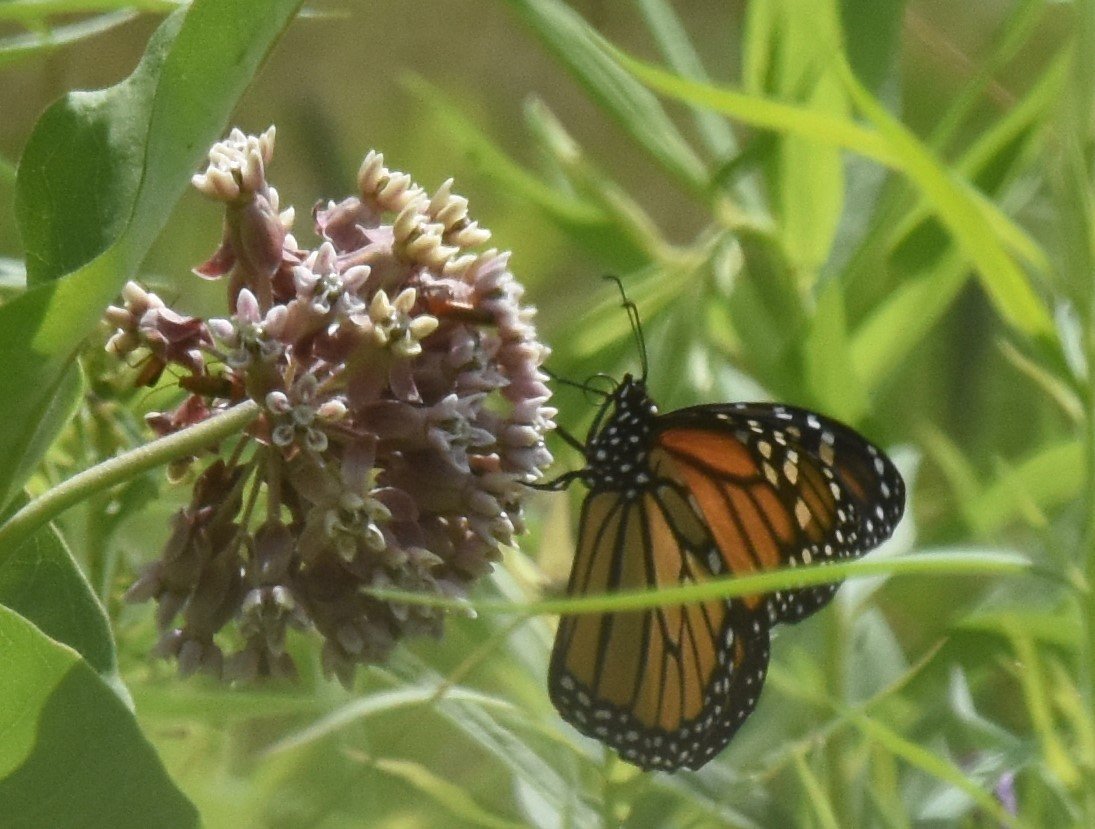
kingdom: Animalia
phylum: Arthropoda
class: Insecta
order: Lepidoptera
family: Nymphalidae
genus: Danaus
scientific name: Danaus plexippus
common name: Monarch
